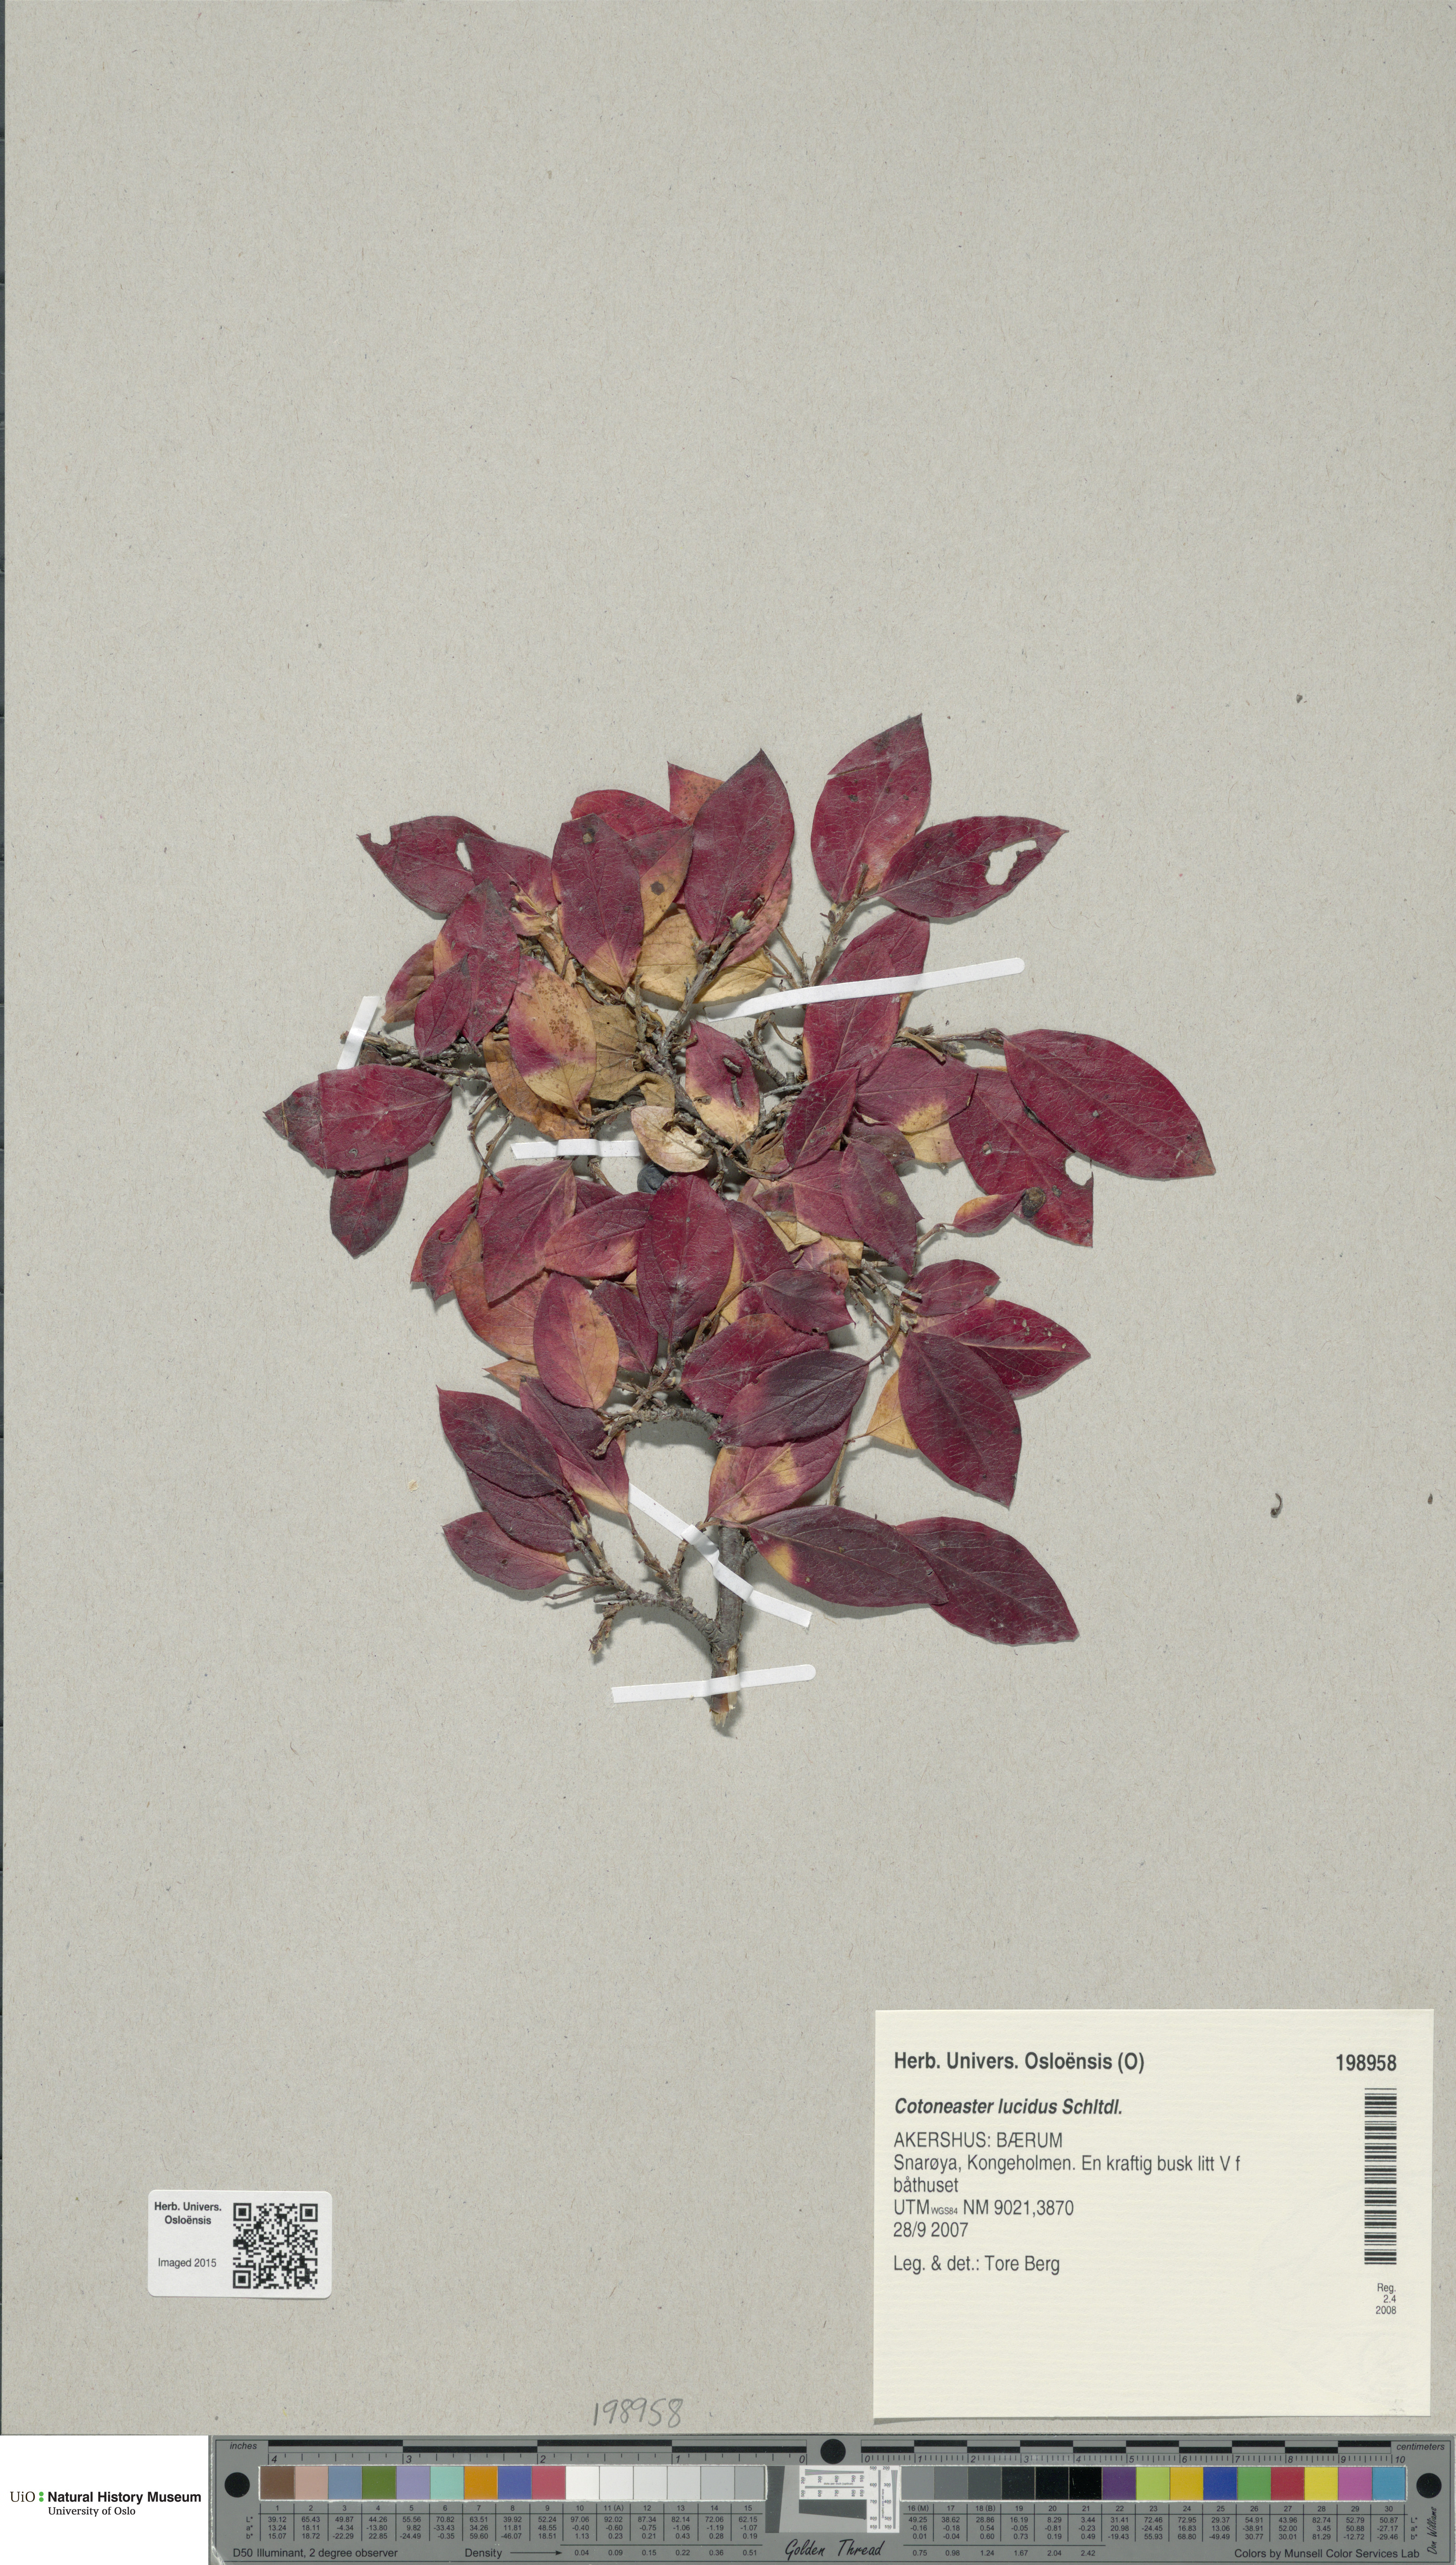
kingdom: Plantae
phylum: Tracheophyta
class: Magnoliopsida
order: Rosales
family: Rosaceae
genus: Cotoneaster
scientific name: Cotoneaster acutifolius
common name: Peking cotoneaster
